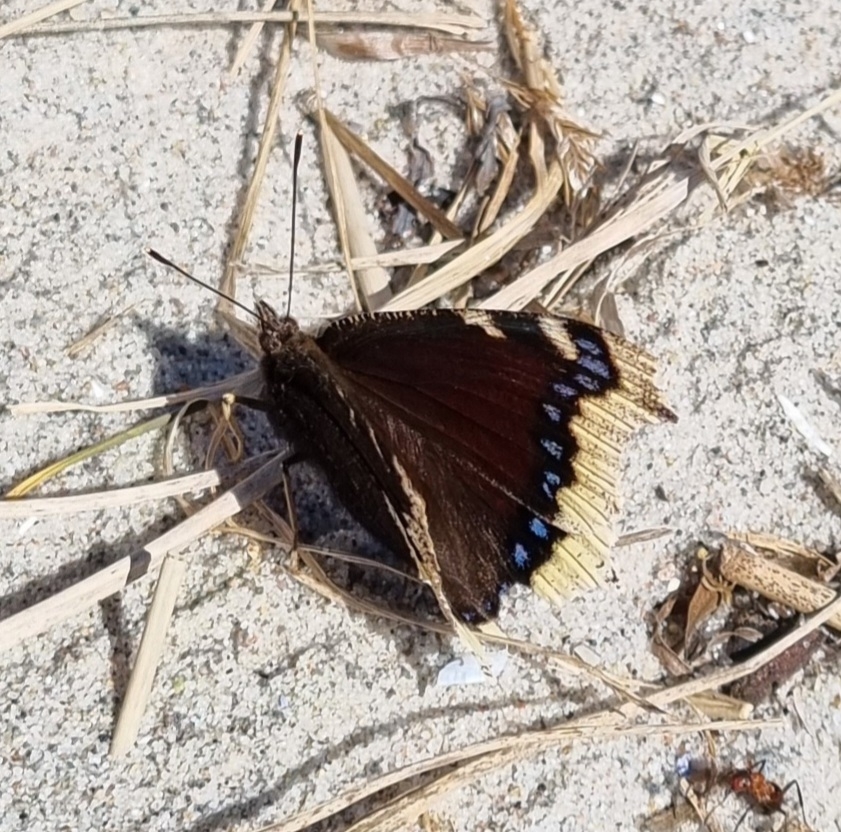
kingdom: Animalia
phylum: Arthropoda
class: Insecta
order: Lepidoptera
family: Nymphalidae
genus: Nymphalis
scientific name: Nymphalis antiopa
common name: Sørgekåbe
